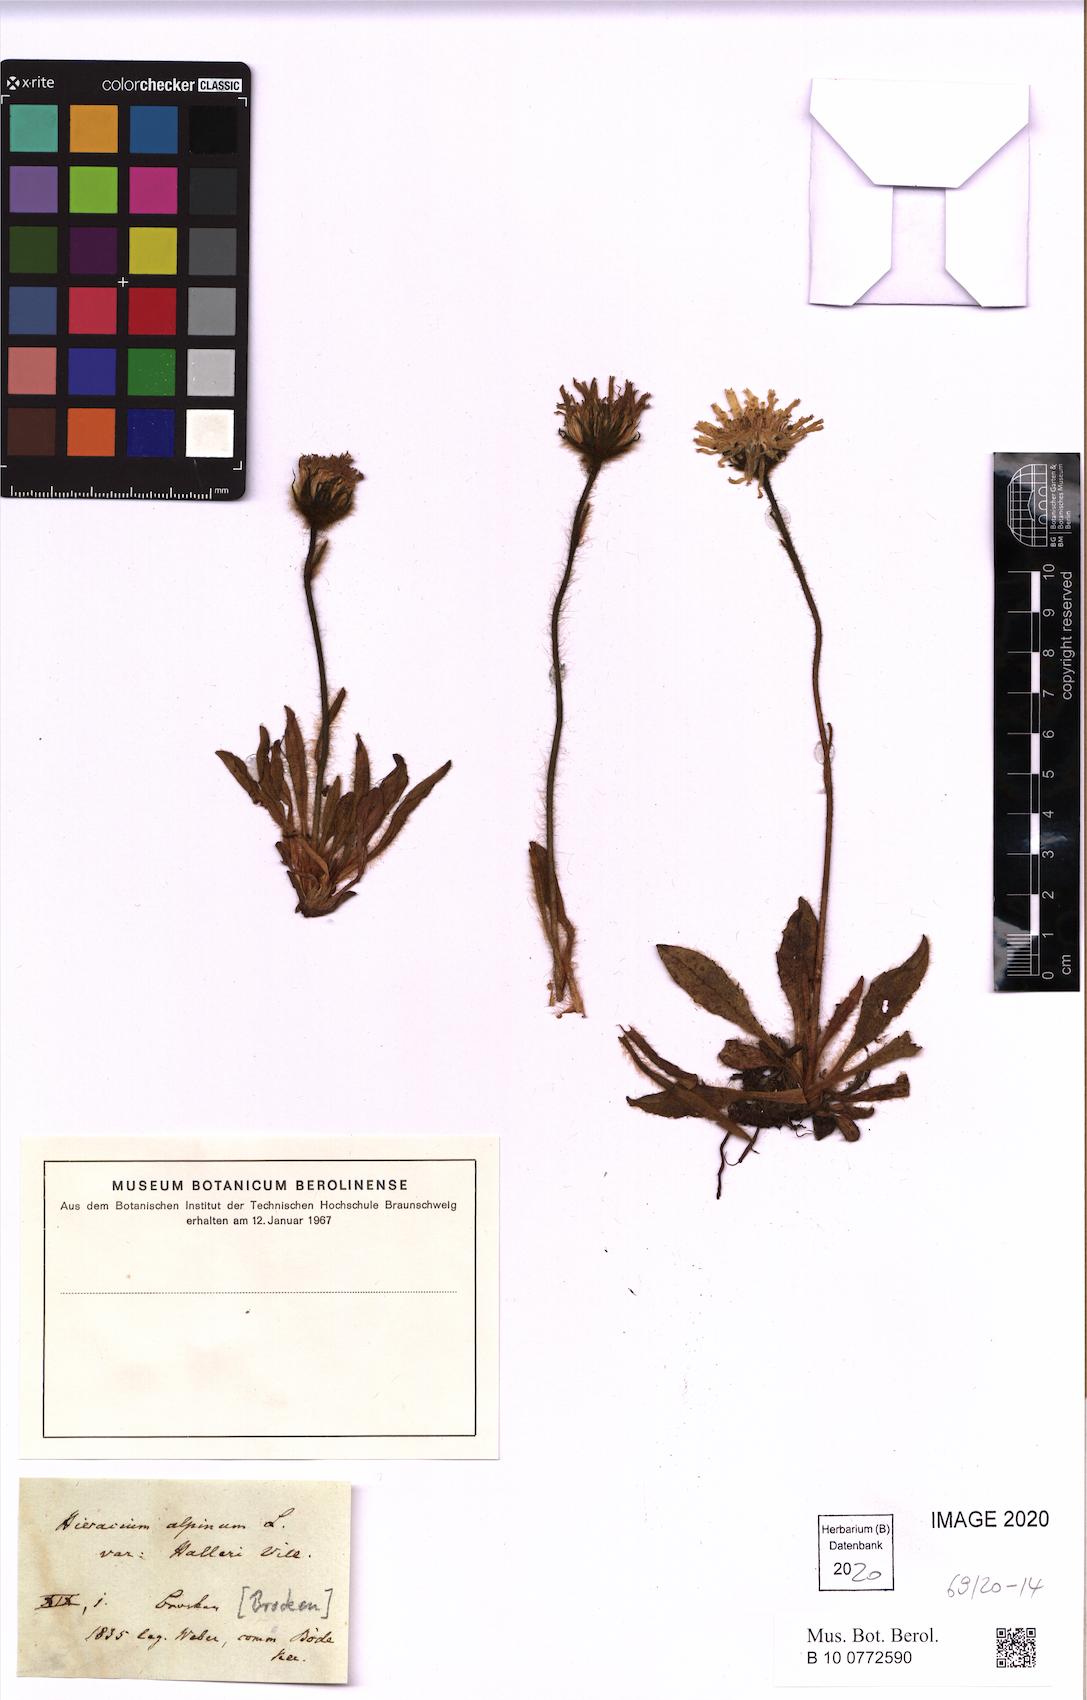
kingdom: Plantae
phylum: Tracheophyta
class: Magnoliopsida
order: Asterales
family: Asteraceae
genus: Hieracium
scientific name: Hieracium alpinum
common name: Alpine hawkweed
